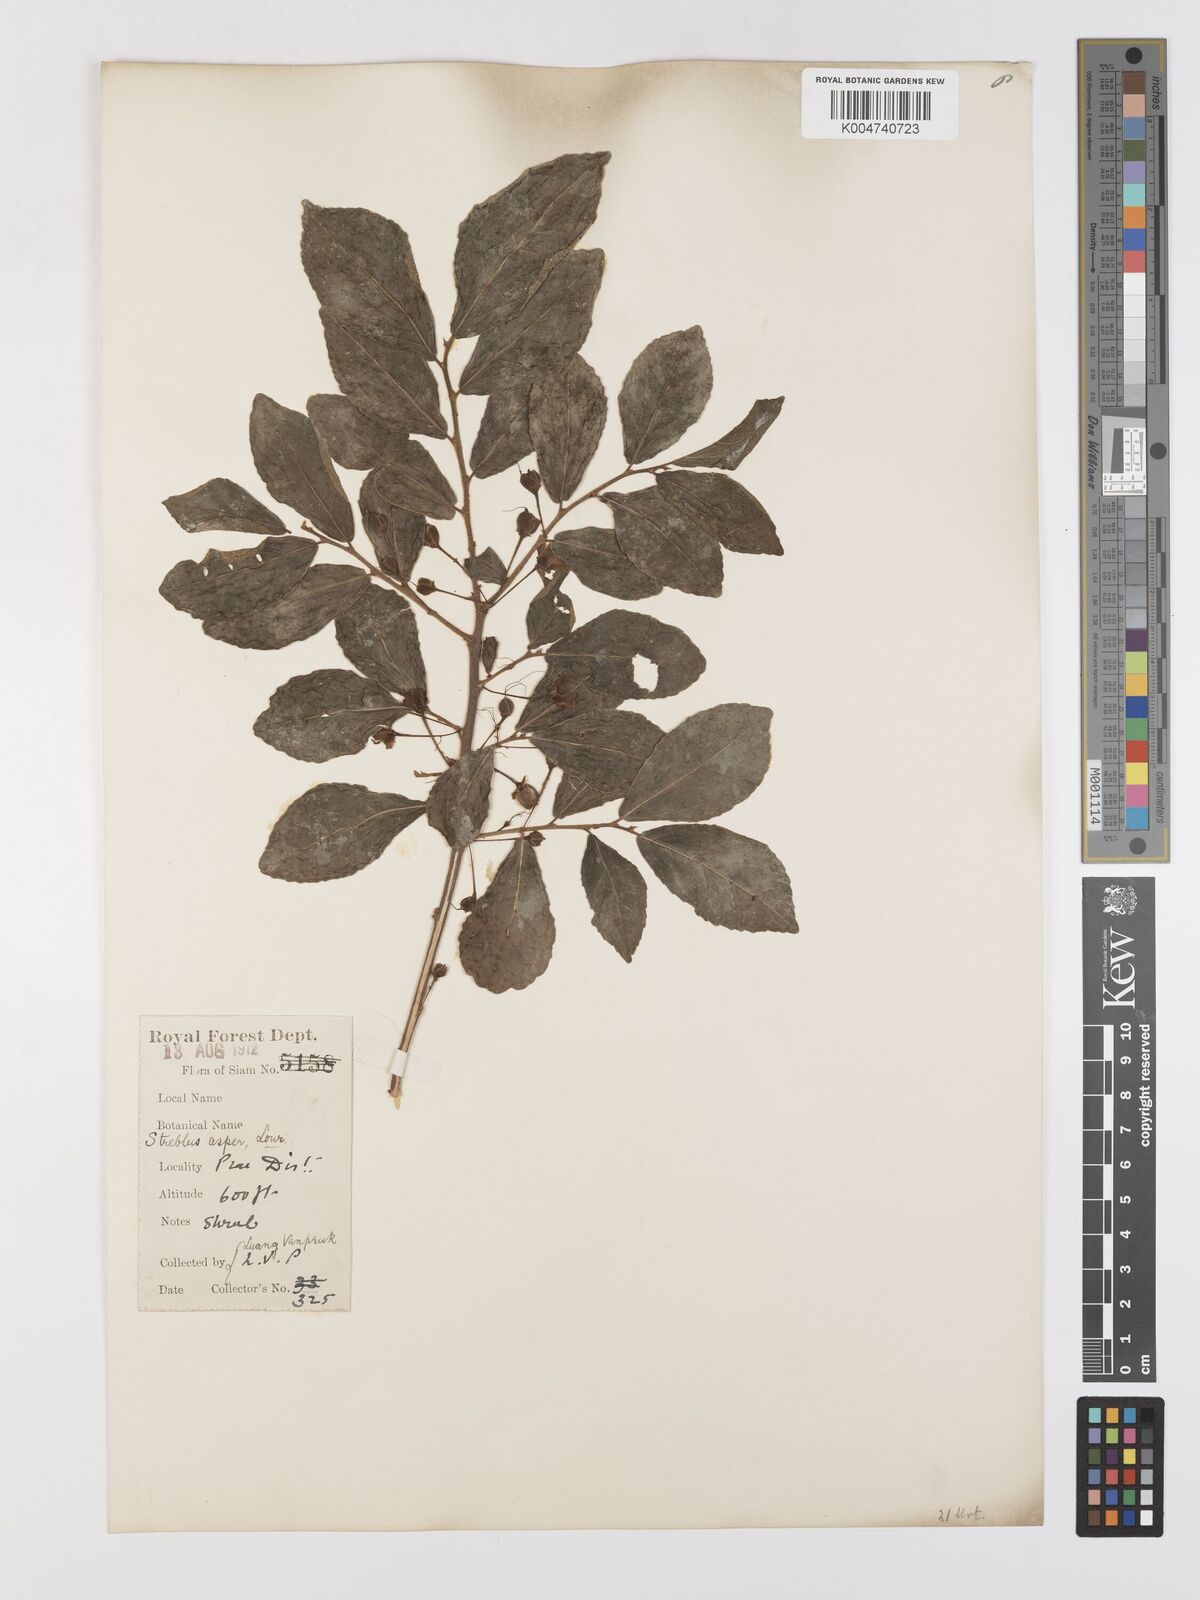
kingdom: Plantae
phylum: Tracheophyta
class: Magnoliopsida
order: Rosales
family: Moraceae
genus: Streblus
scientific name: Streblus asper
